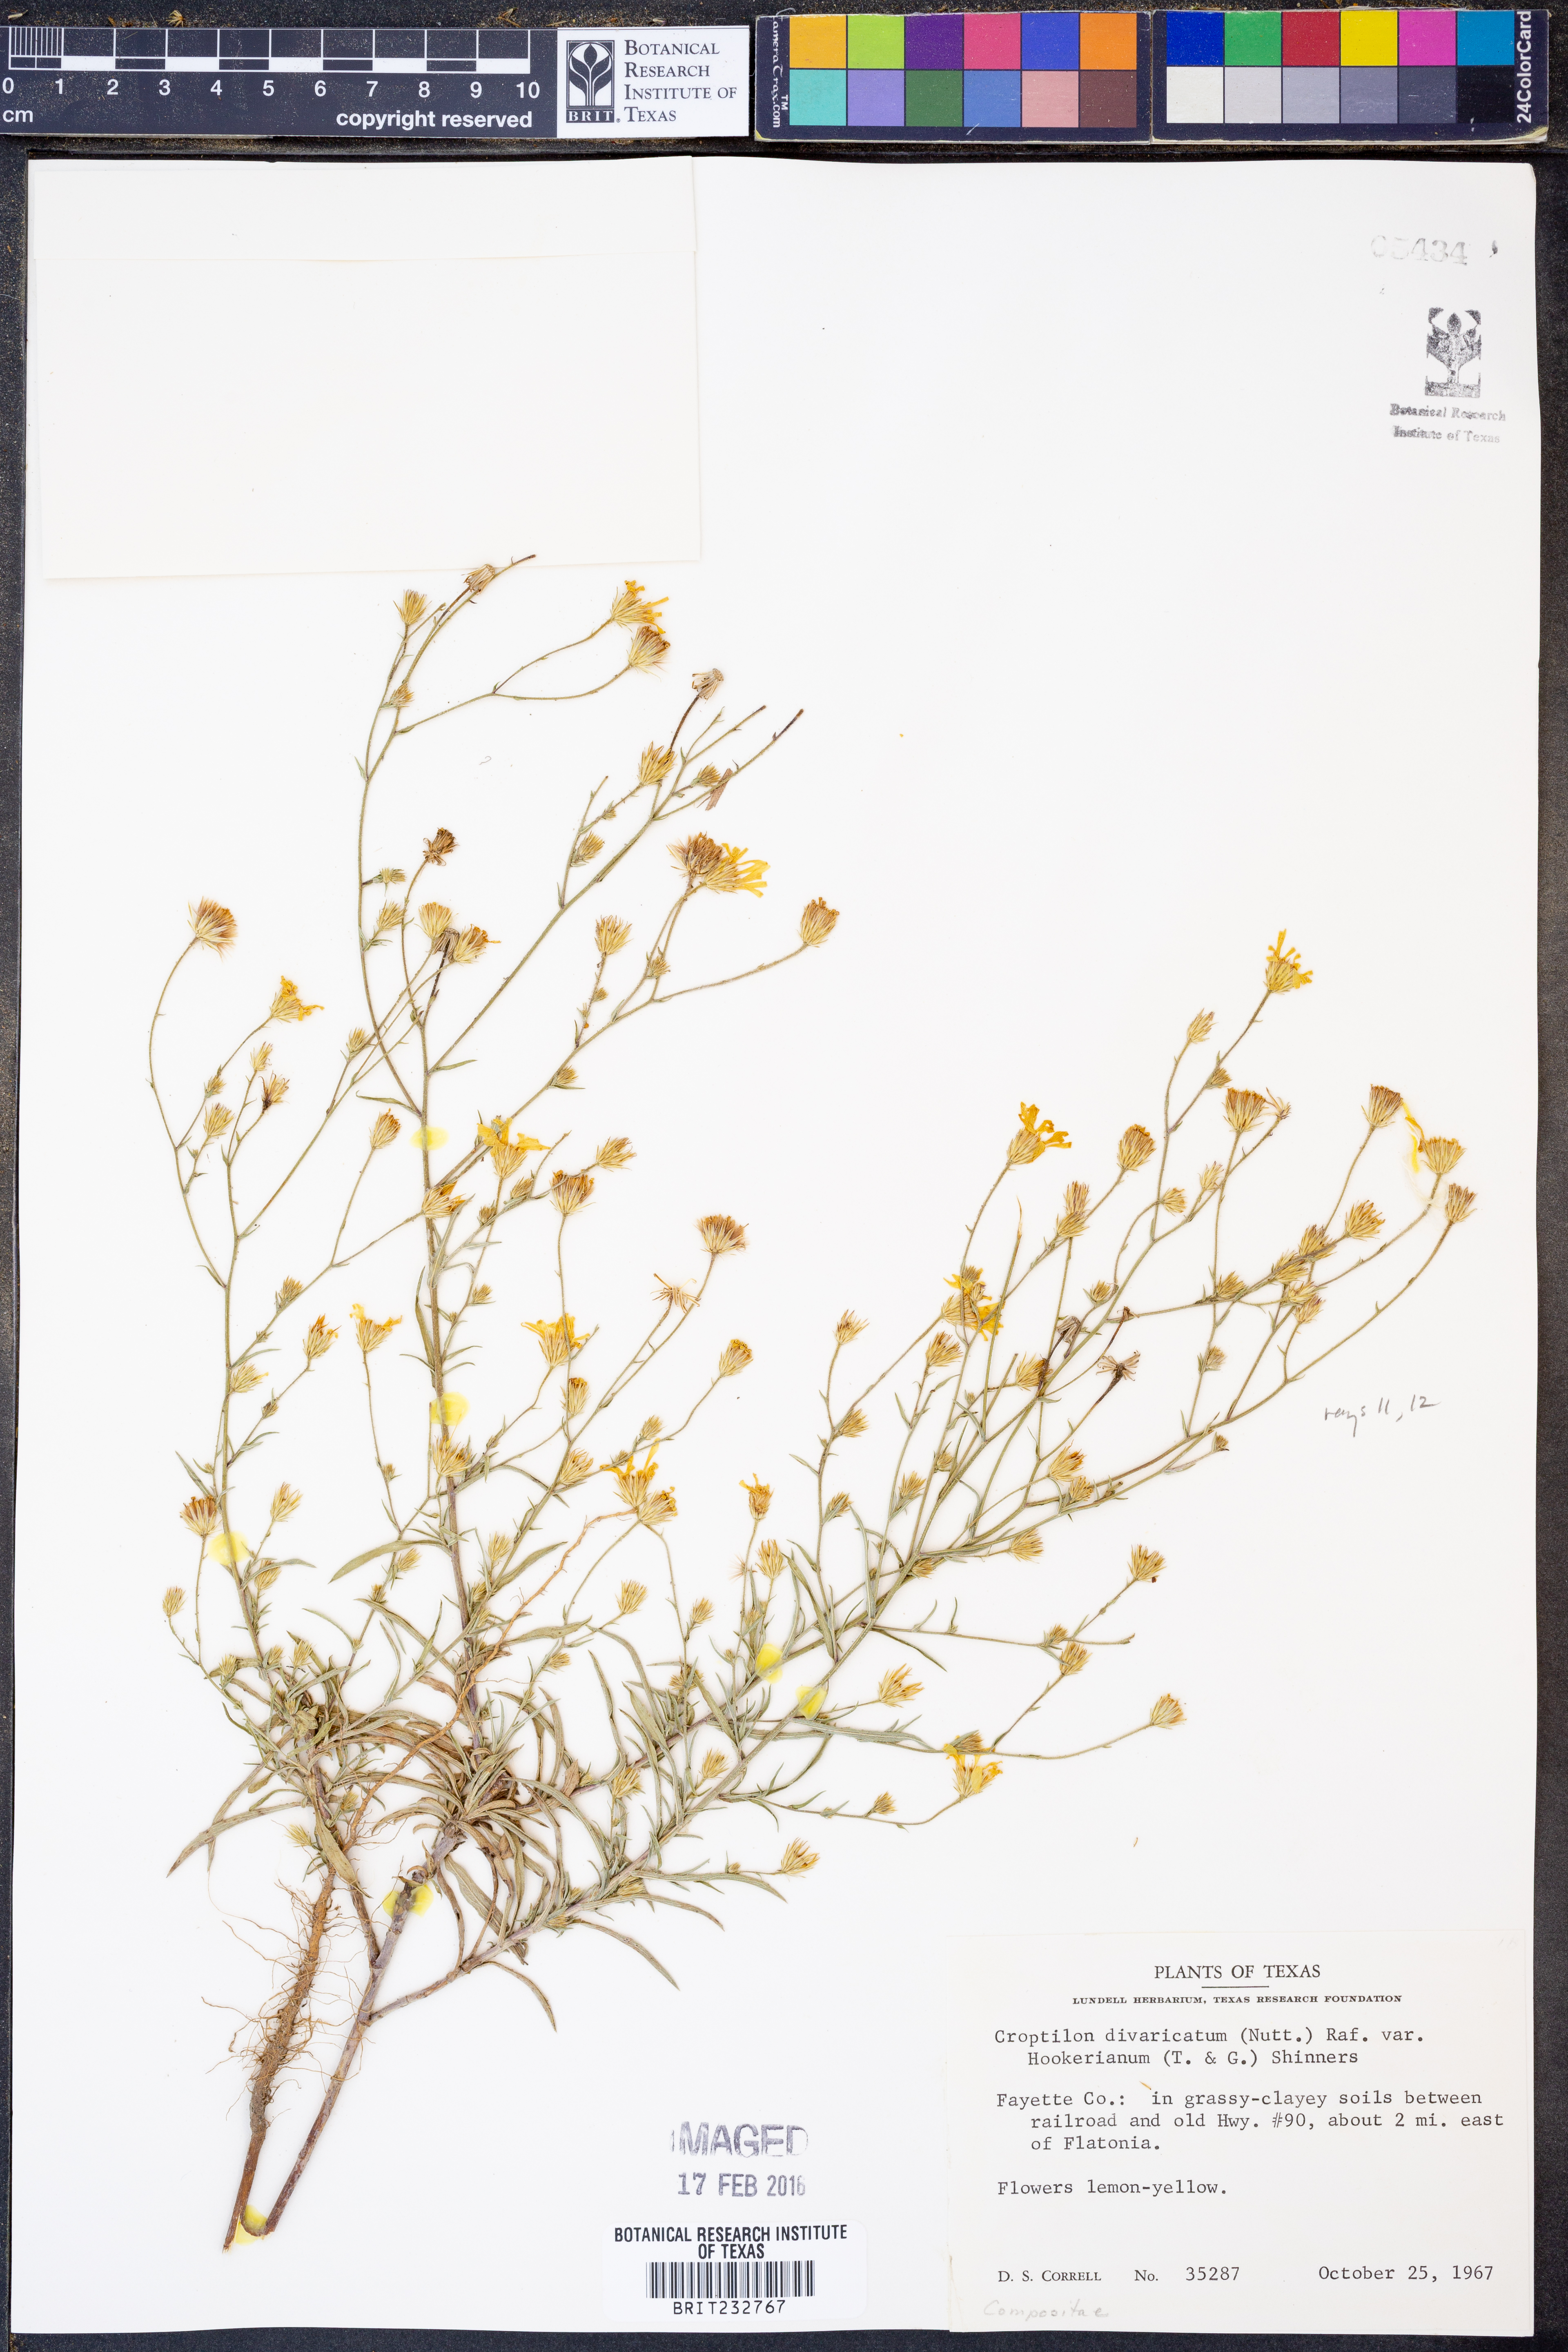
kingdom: Plantae
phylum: Tracheophyta
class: Magnoliopsida
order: Asterales
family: Asteraceae
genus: Croptilon
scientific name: Croptilon hookerianum
